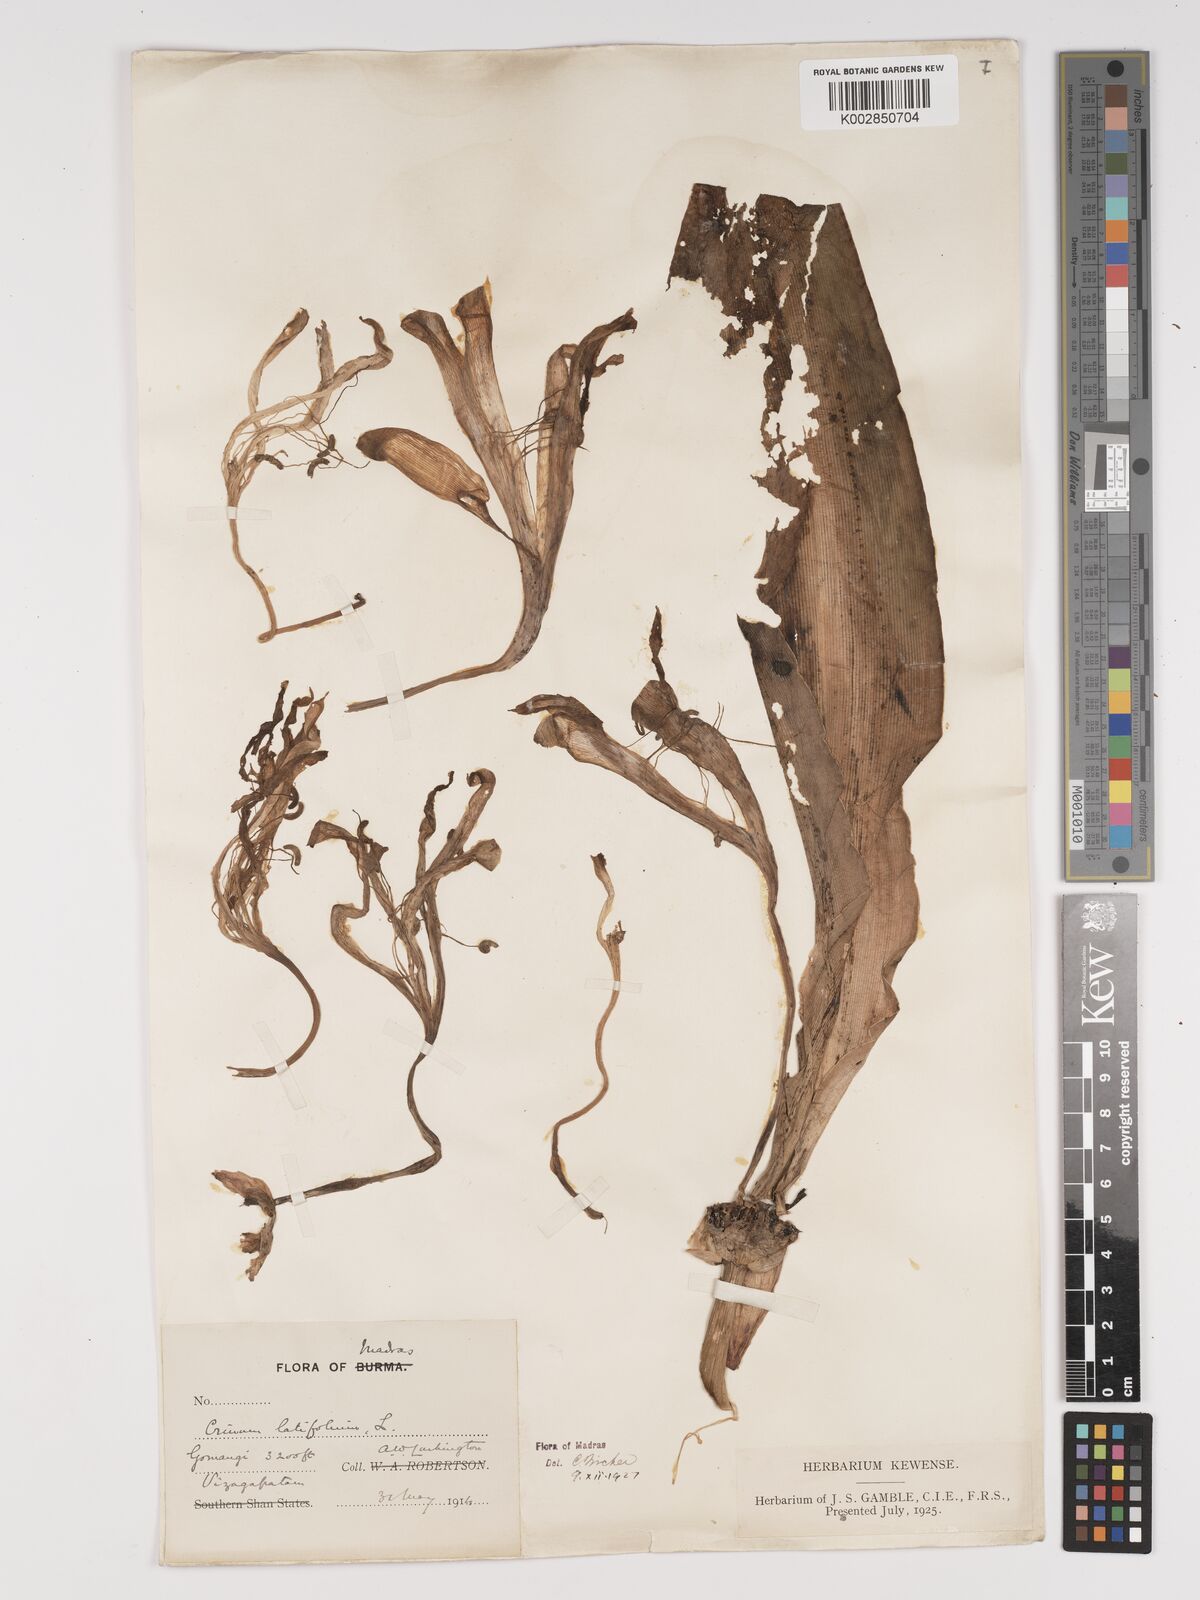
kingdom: Plantae
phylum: Tracheophyta
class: Liliopsida
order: Asparagales
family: Amaryllidaceae
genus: Crinum
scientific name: Crinum latifolium
